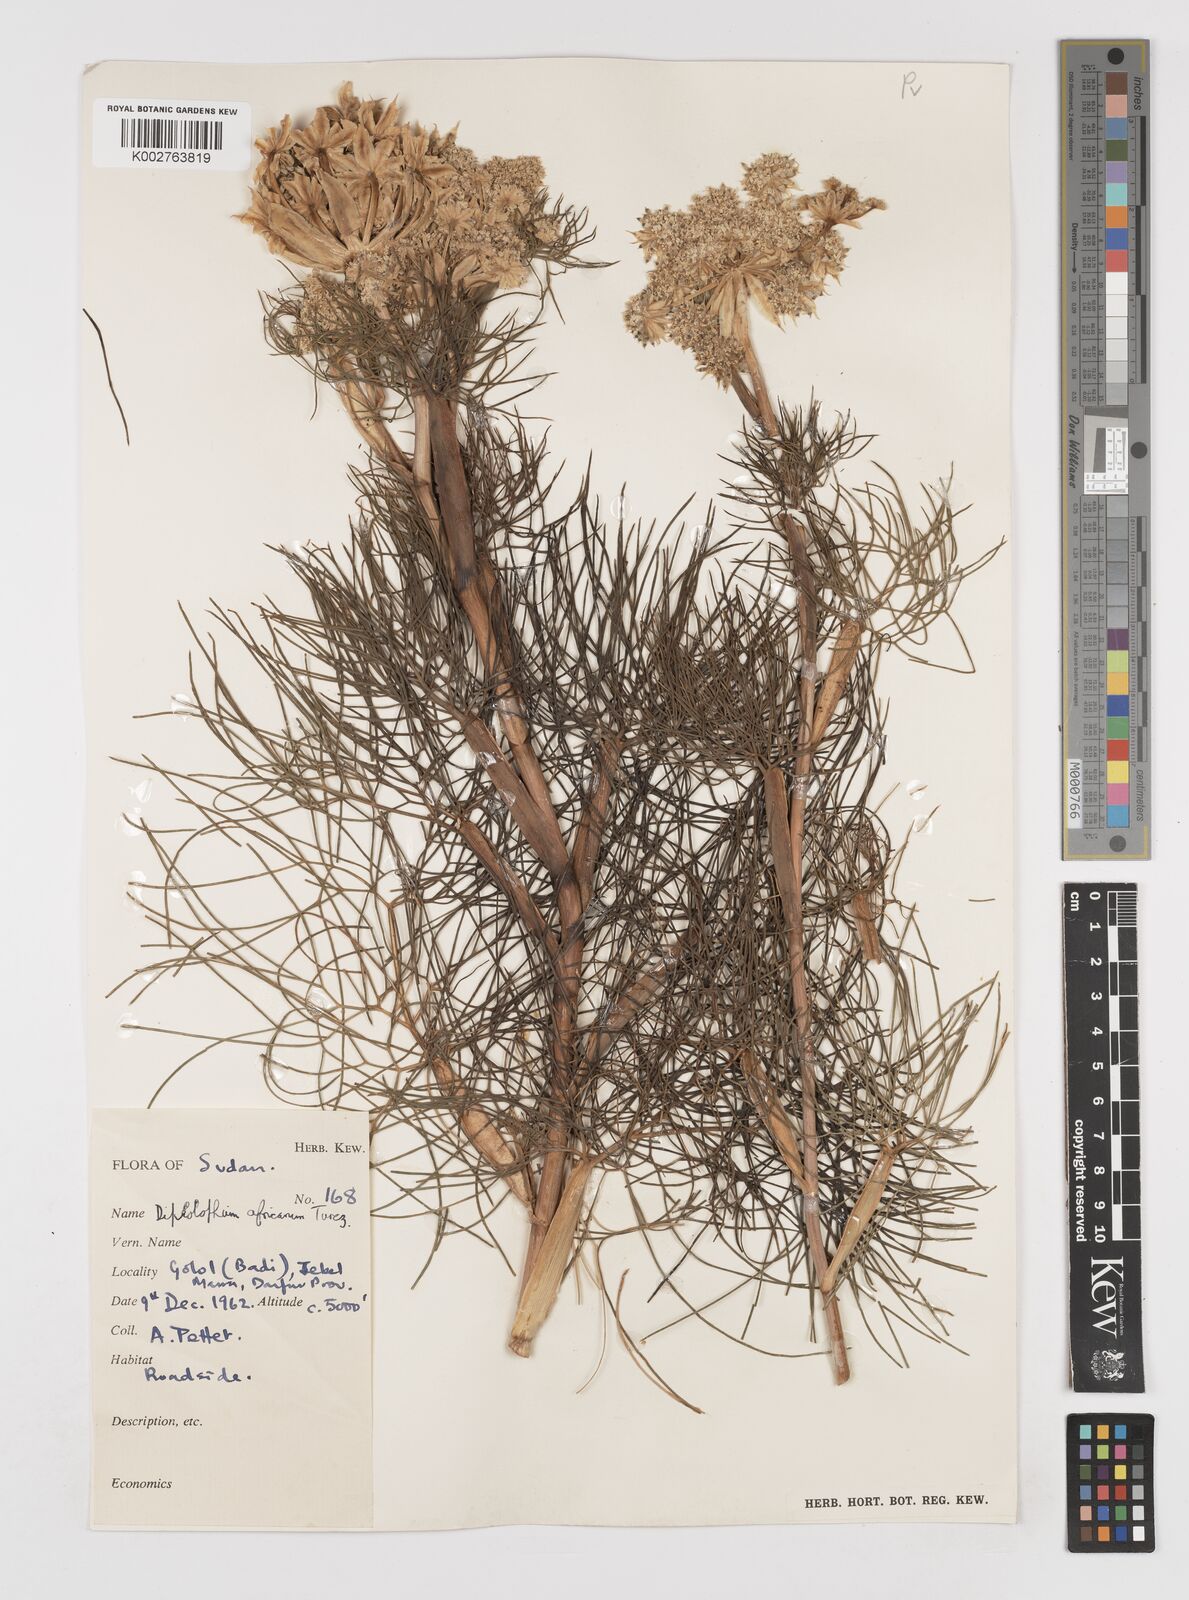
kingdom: Plantae
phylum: Tracheophyta
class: Magnoliopsida
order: Apiales
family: Apiaceae
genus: Diplolophium
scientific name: Diplolophium africanum
